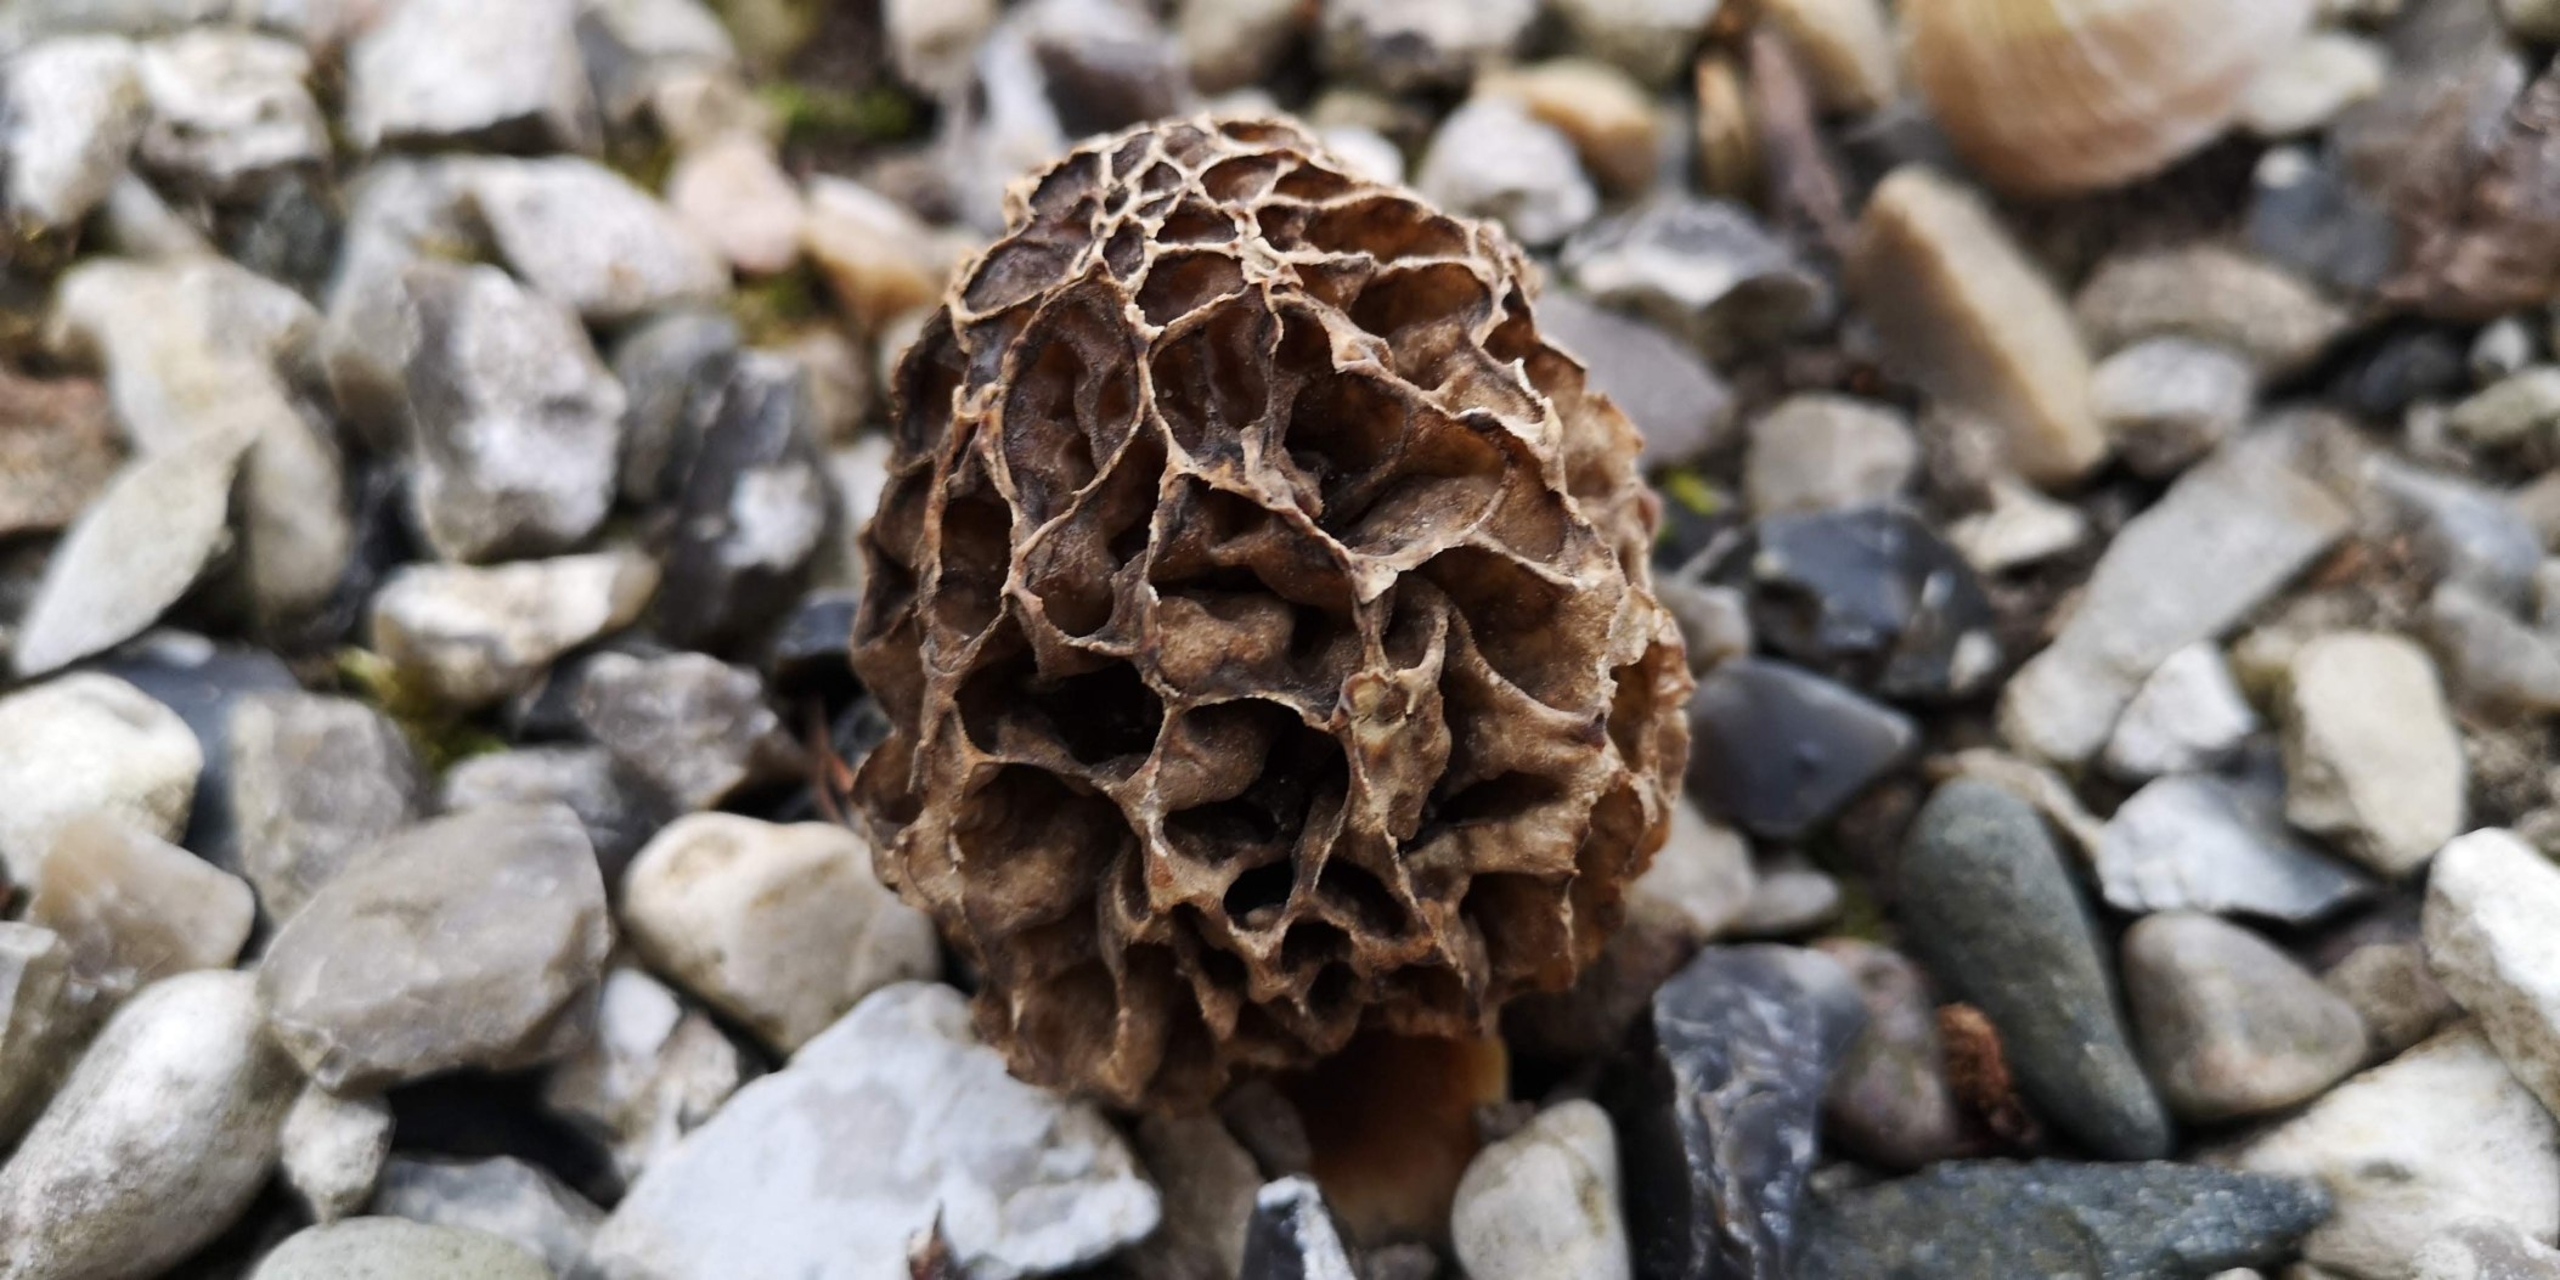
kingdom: Fungi
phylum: Ascomycota
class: Pezizomycetes
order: Pezizales
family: Morchellaceae
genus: Morchella
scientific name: Morchella
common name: Morkel
